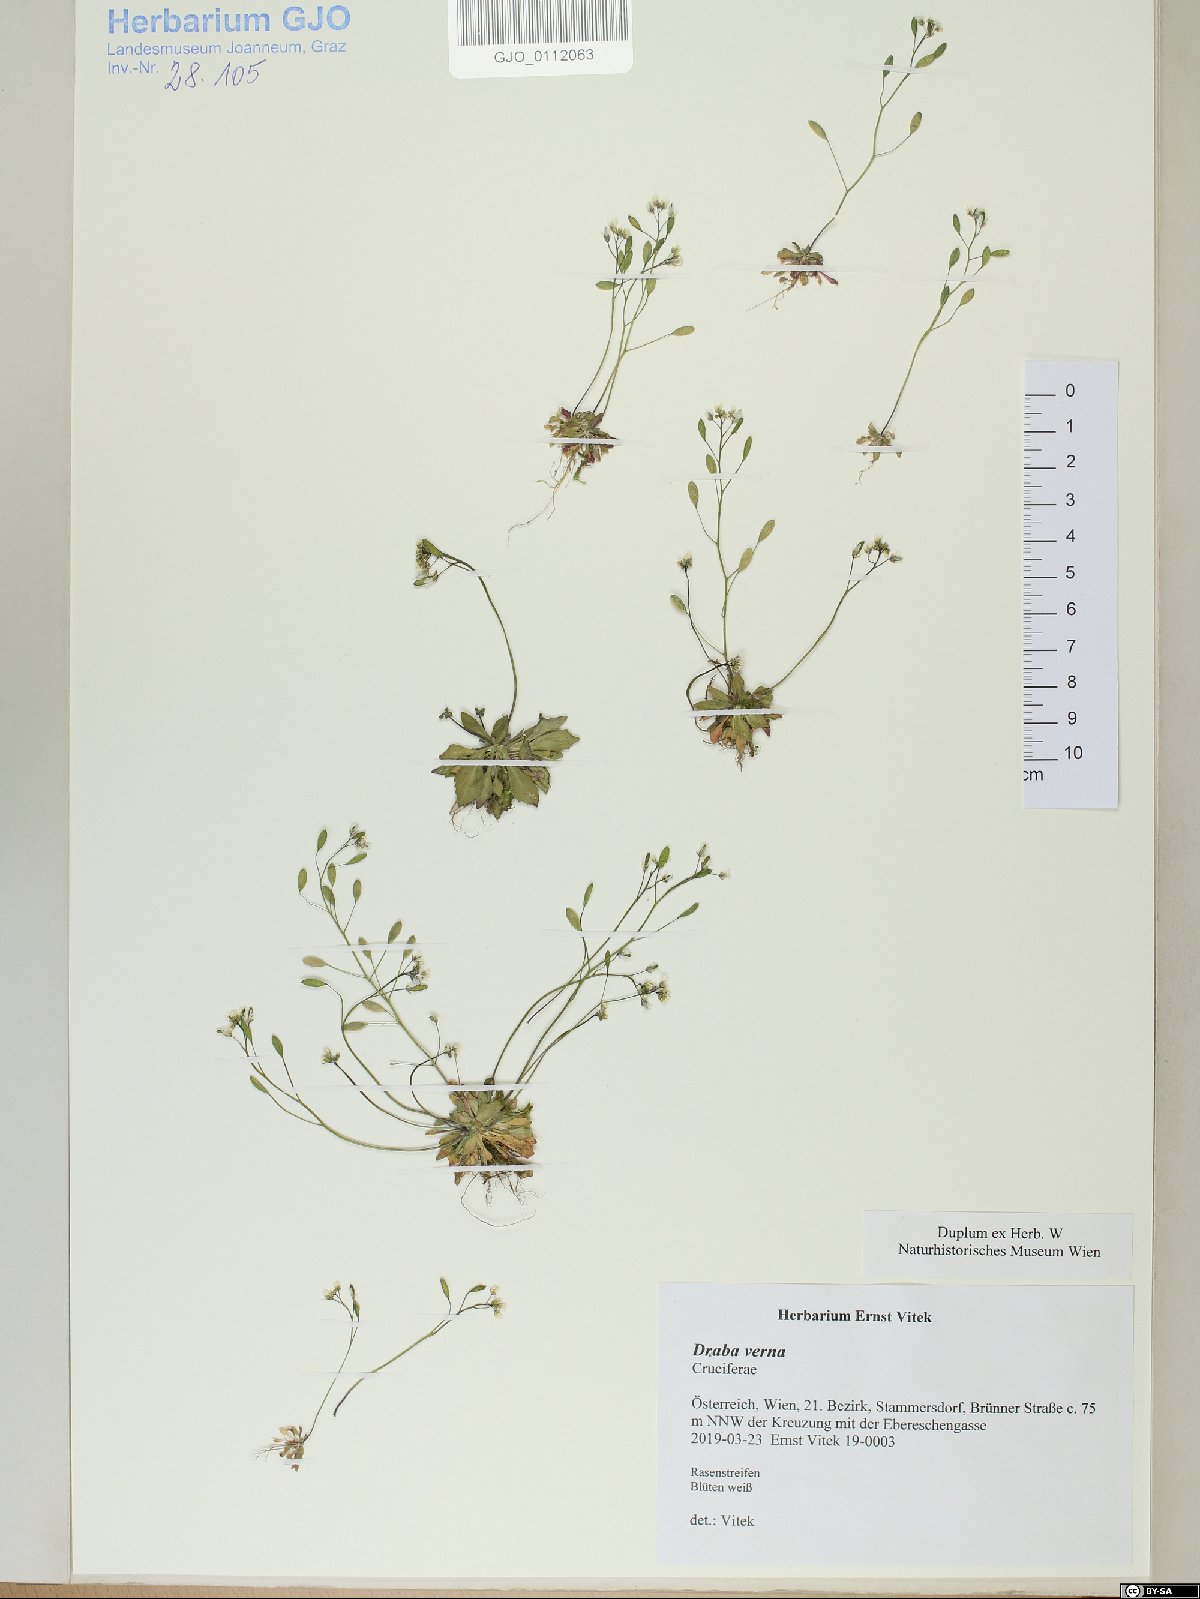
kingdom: Plantae
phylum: Tracheophyta
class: Magnoliopsida
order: Brassicales
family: Brassicaceae
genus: Draba
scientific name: Draba verna
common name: Spring draba
